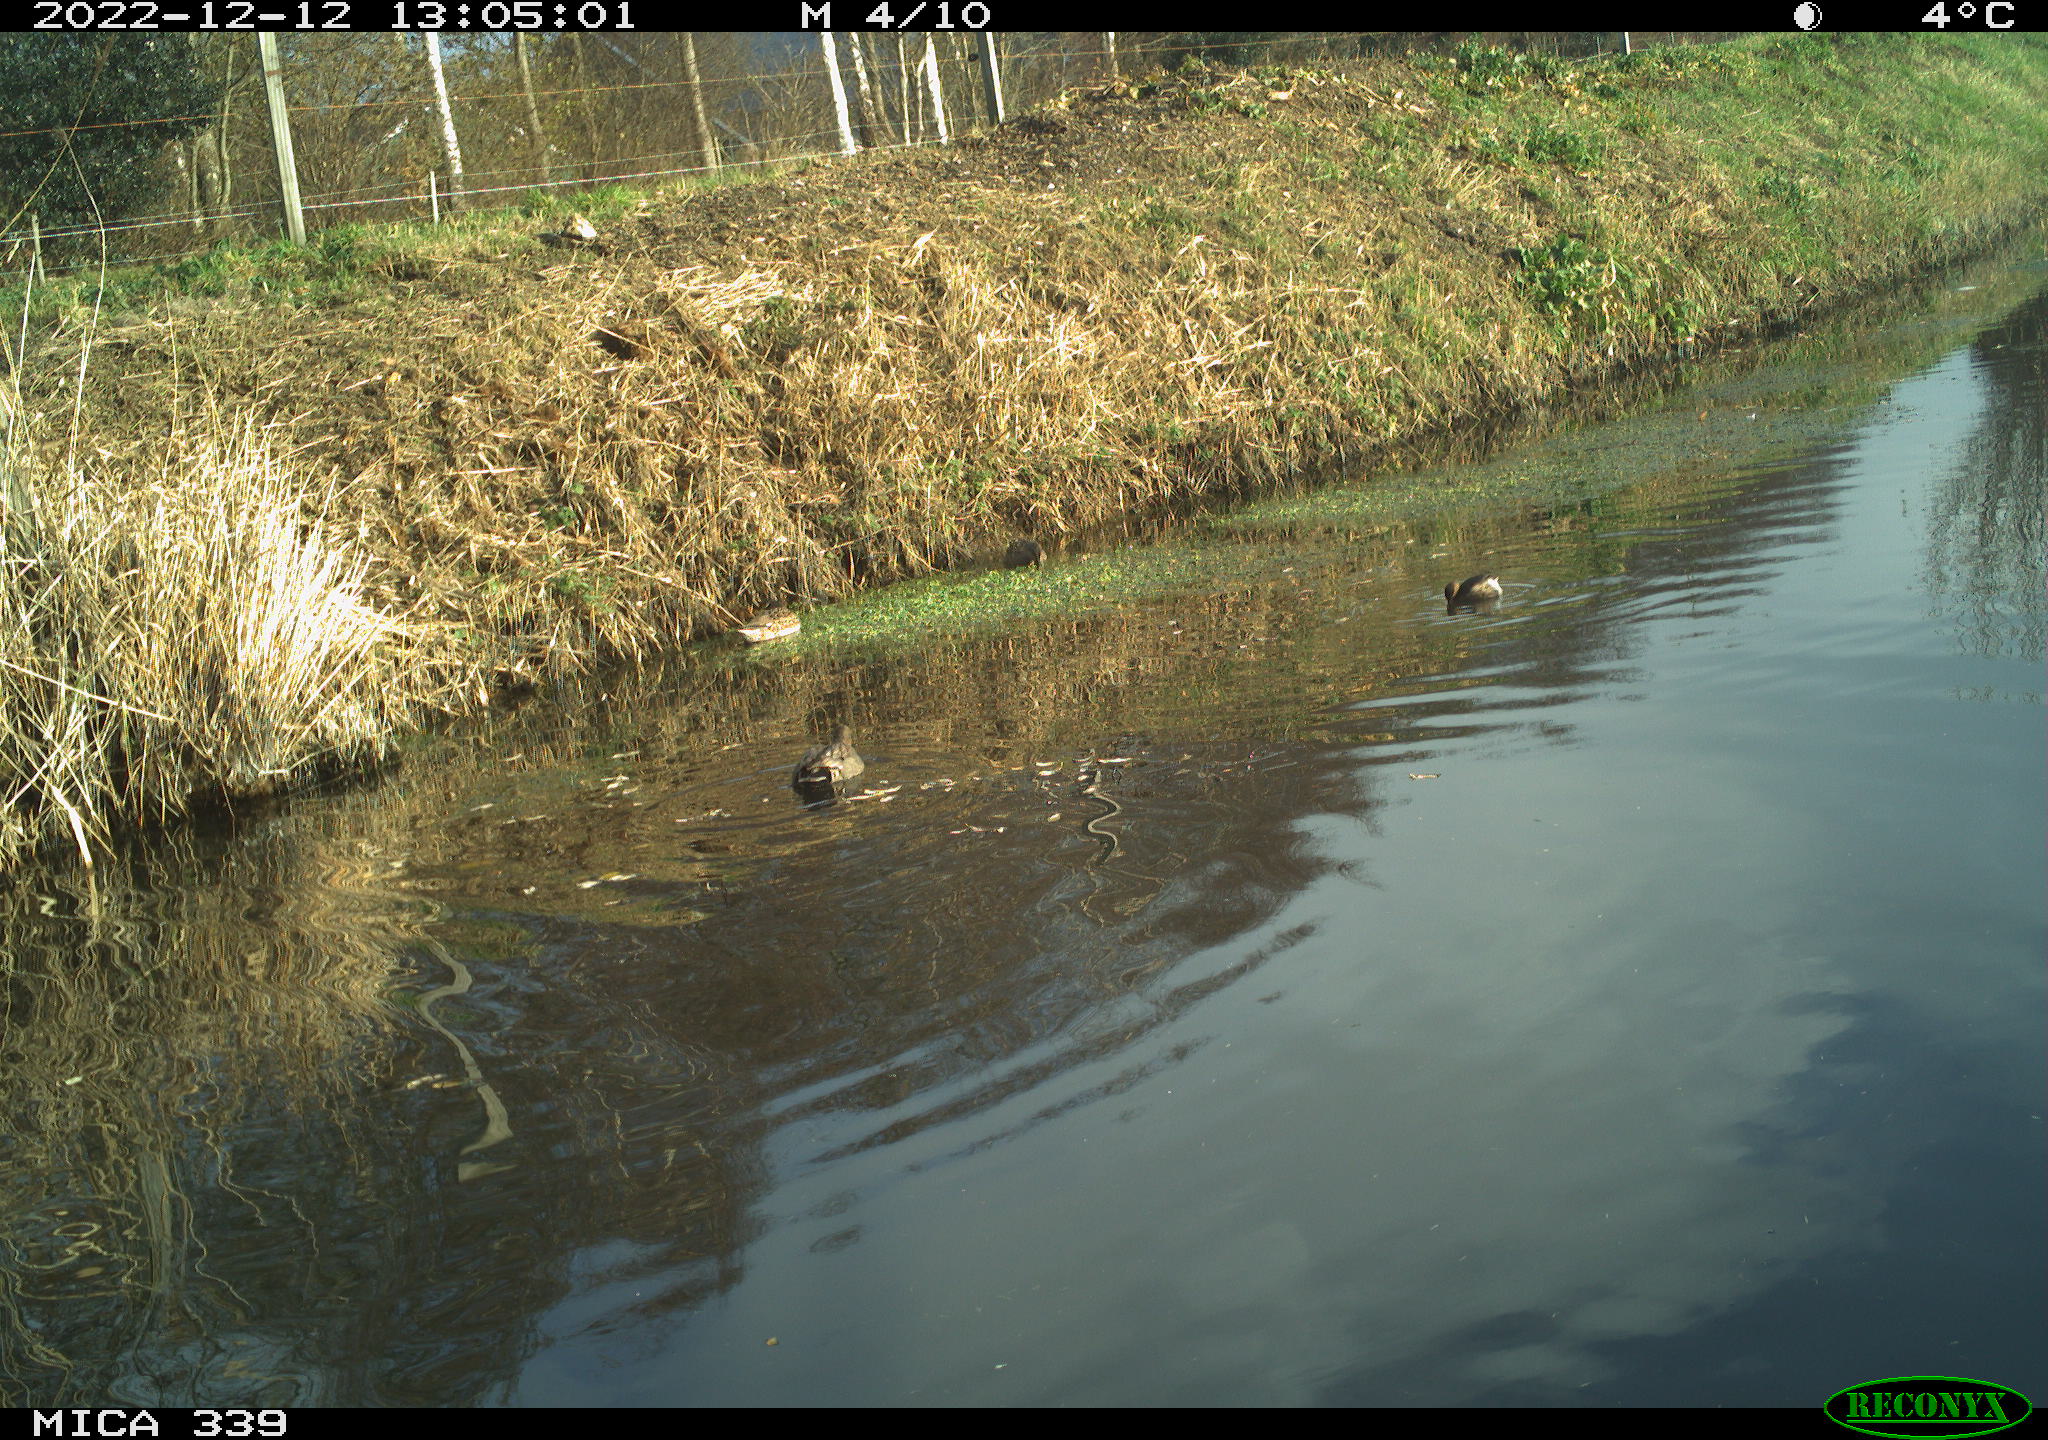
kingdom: Animalia
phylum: Chordata
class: Aves
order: Anseriformes
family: Anatidae
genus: Anas
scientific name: Anas
